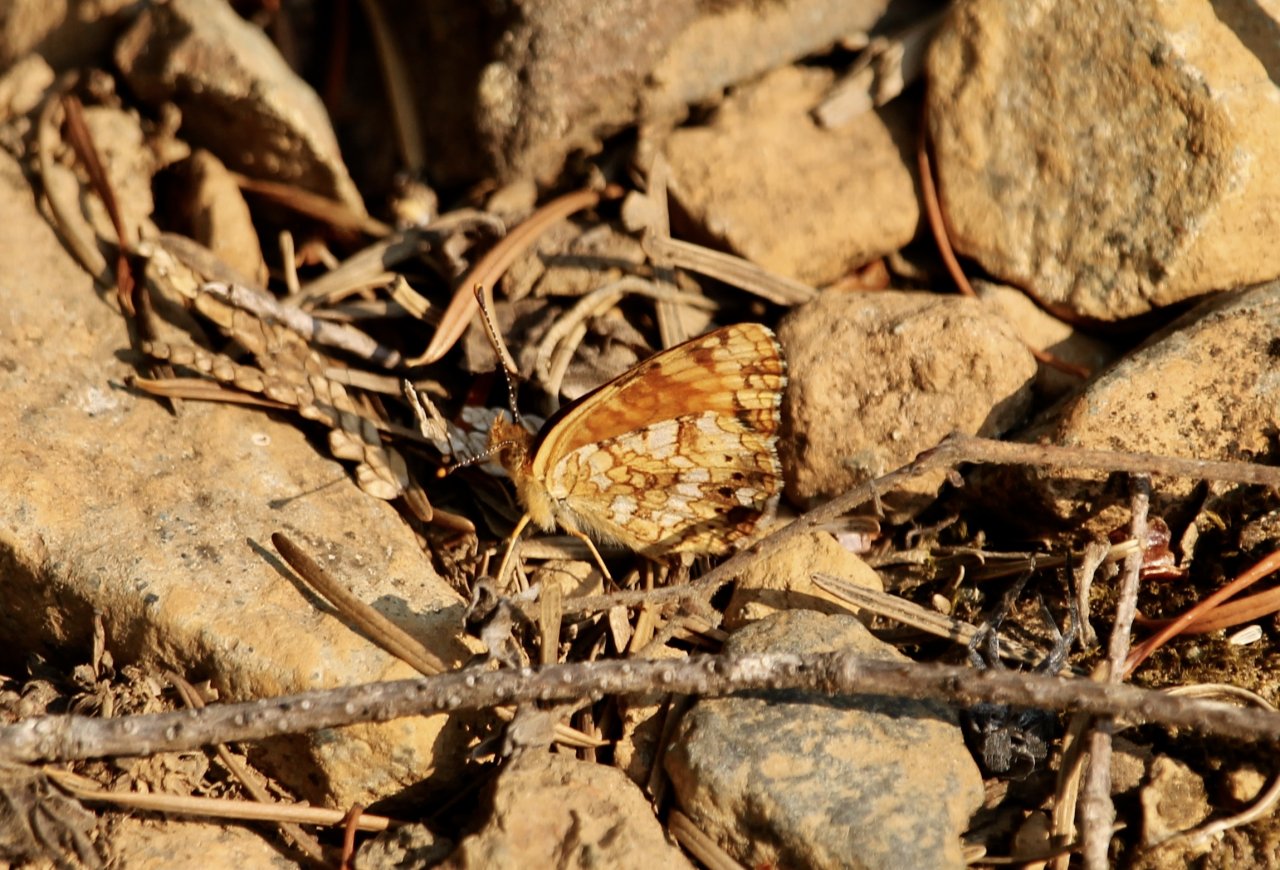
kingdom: Animalia
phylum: Arthropoda
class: Insecta
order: Lepidoptera
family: Nymphalidae
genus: Eresia
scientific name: Eresia aveyrona
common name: Mylitta Crescent
